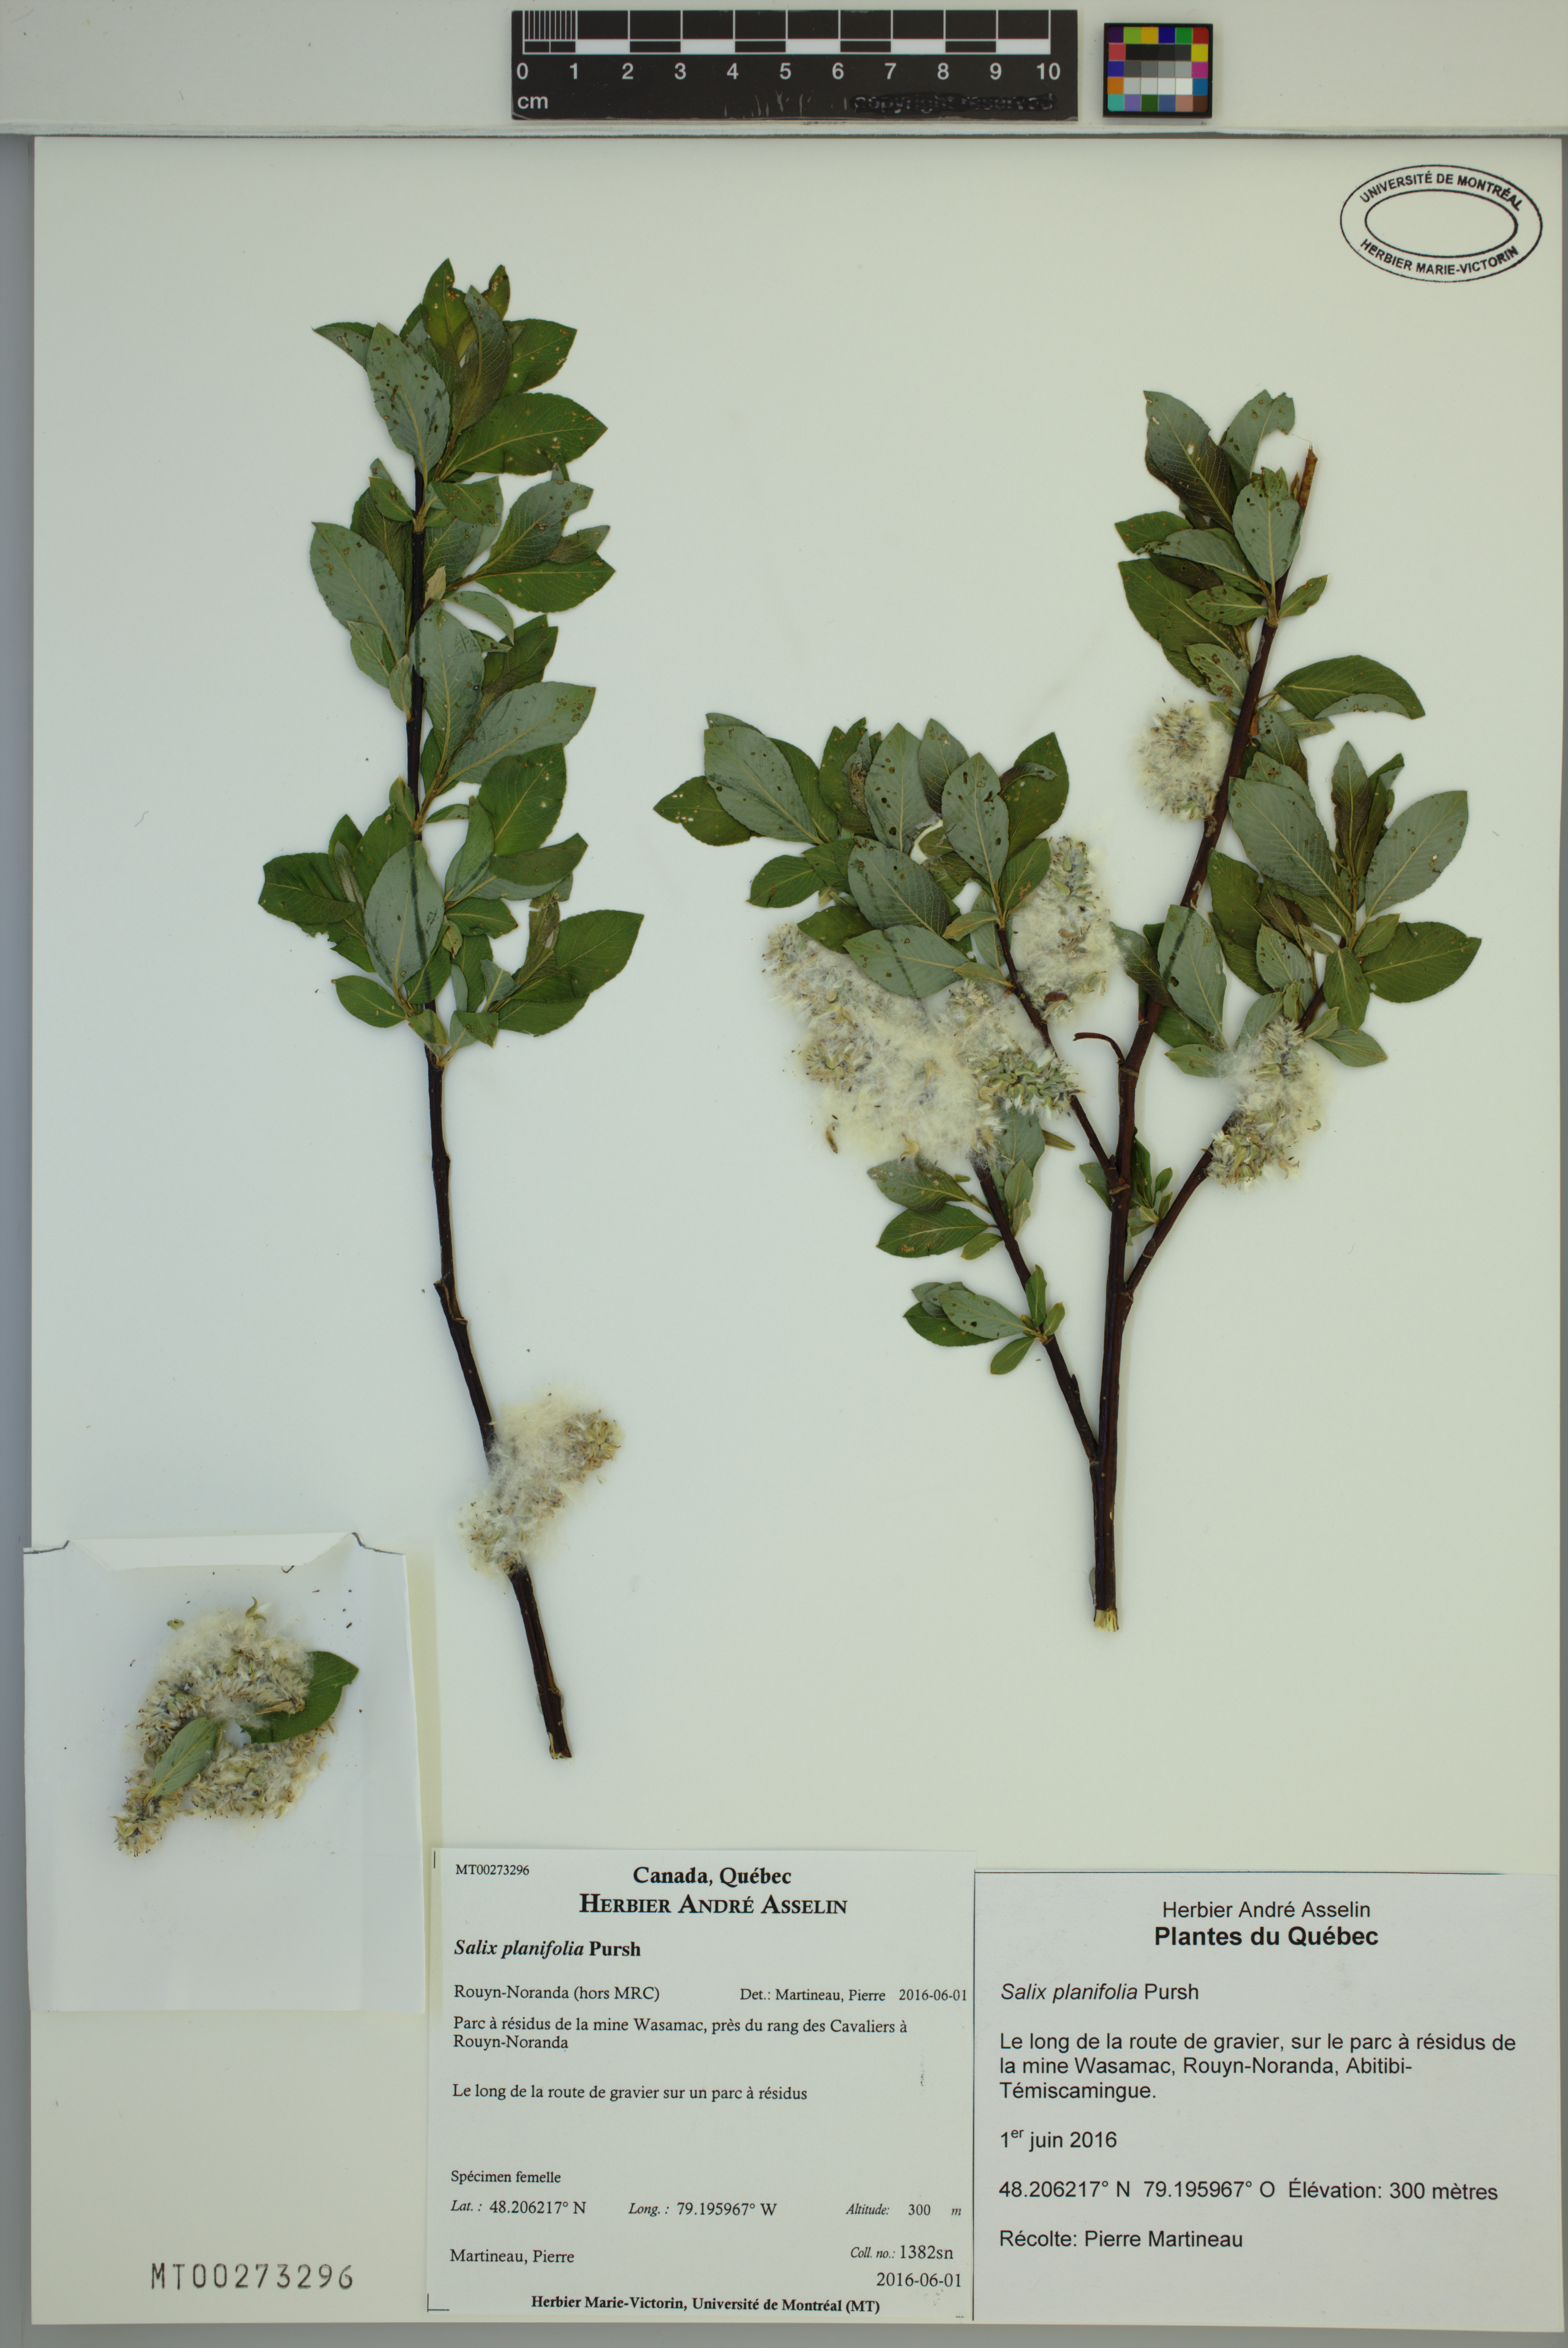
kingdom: Plantae
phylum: Tracheophyta
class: Magnoliopsida
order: Malpighiales
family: Salicaceae
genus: Salix
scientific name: Salix planifolia
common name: Mountain willow
